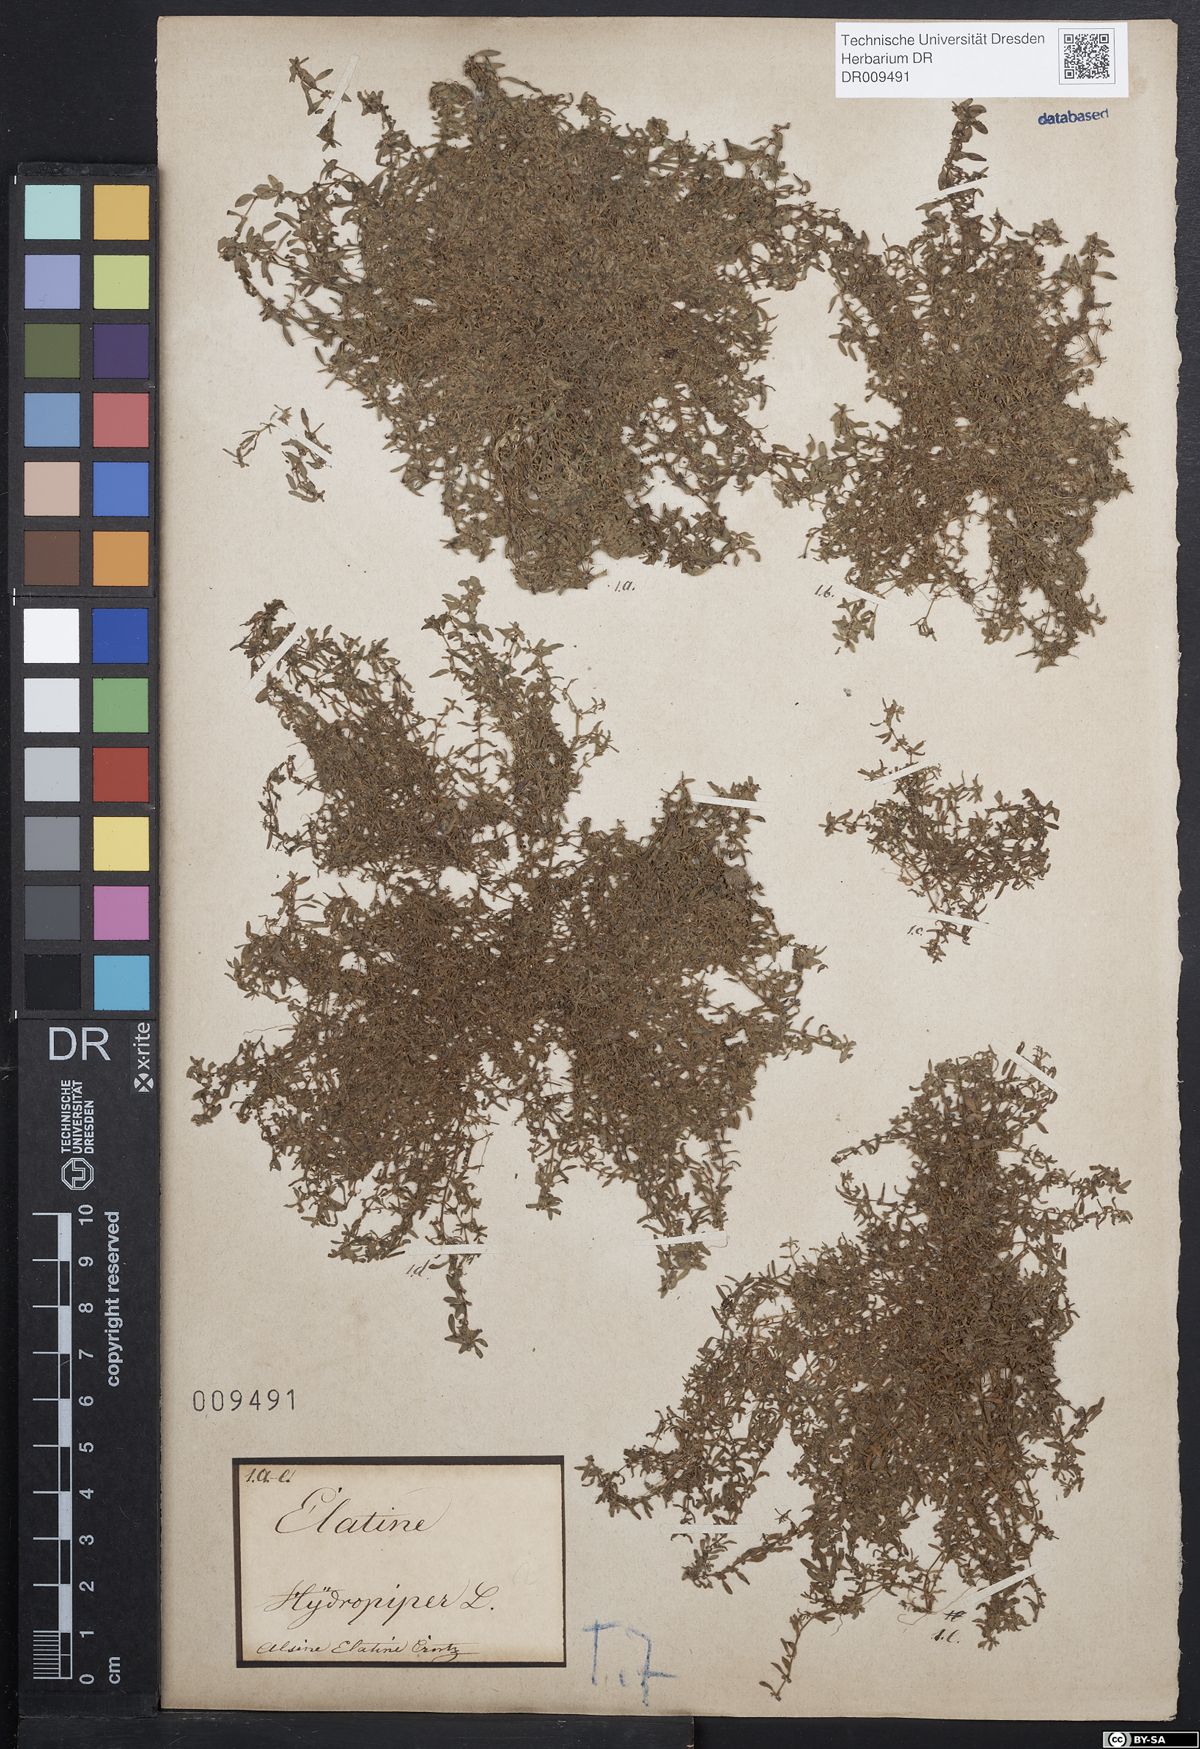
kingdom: Plantae
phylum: Tracheophyta
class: Magnoliopsida
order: Malpighiales
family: Elatinaceae
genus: Elatine
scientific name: Elatine hydropiper
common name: Eight-stamened waterwort
